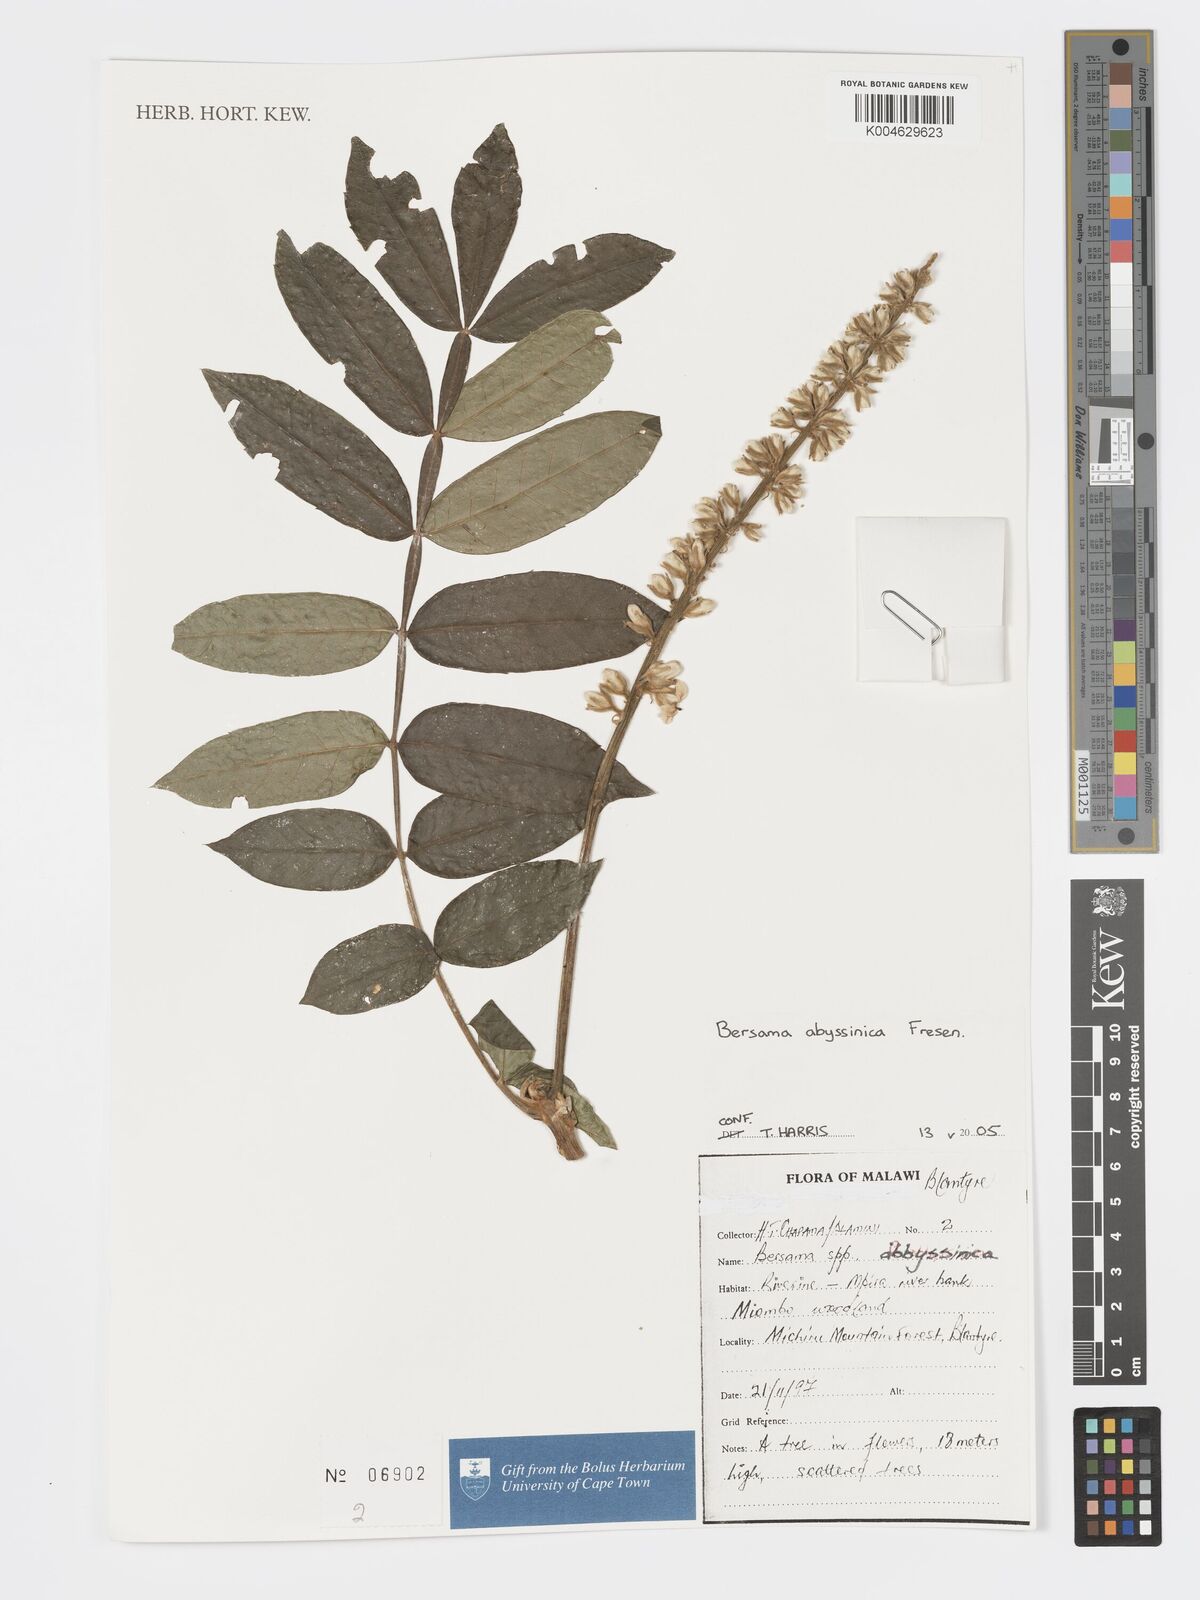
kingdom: Plantae
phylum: Tracheophyta
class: Magnoliopsida
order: Geraniales
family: Melianthaceae
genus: Bersama
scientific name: Bersama abyssinica
